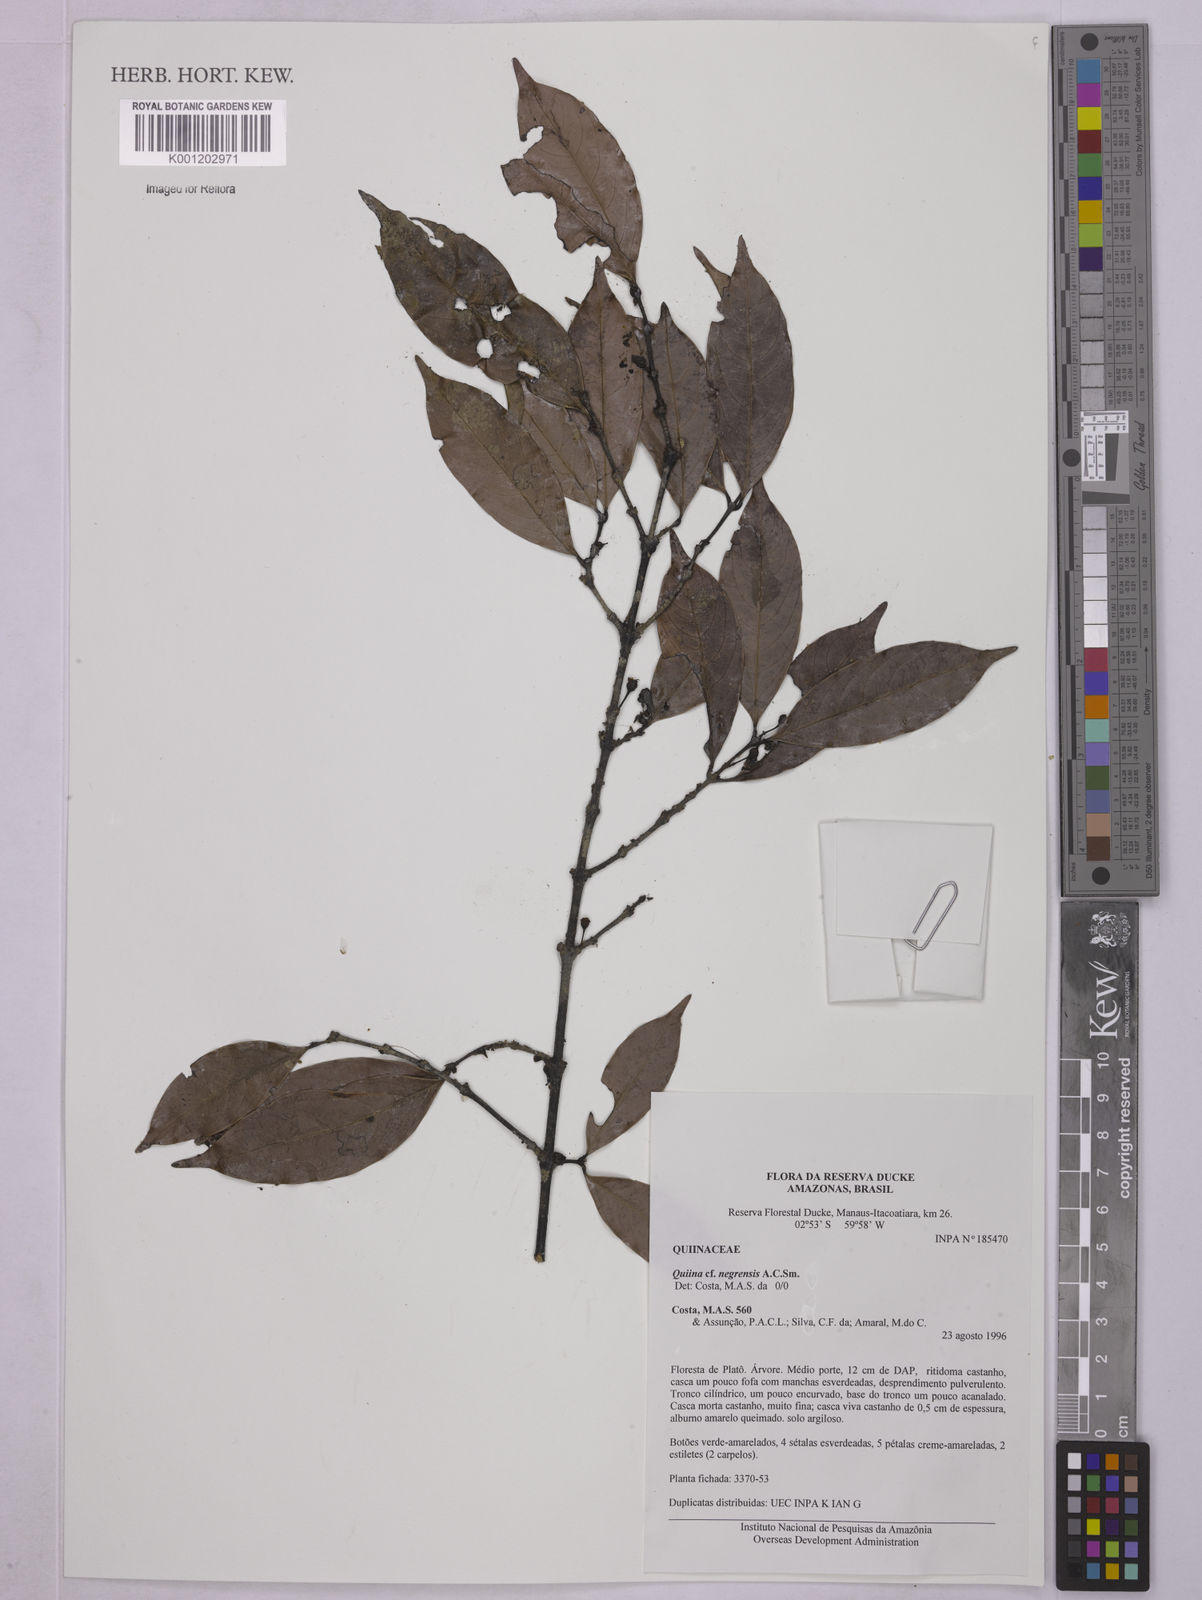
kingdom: Plantae
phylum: Tracheophyta
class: Magnoliopsida
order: Malpighiales
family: Quiinaceae
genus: Quiina
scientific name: Quiina negrensis
